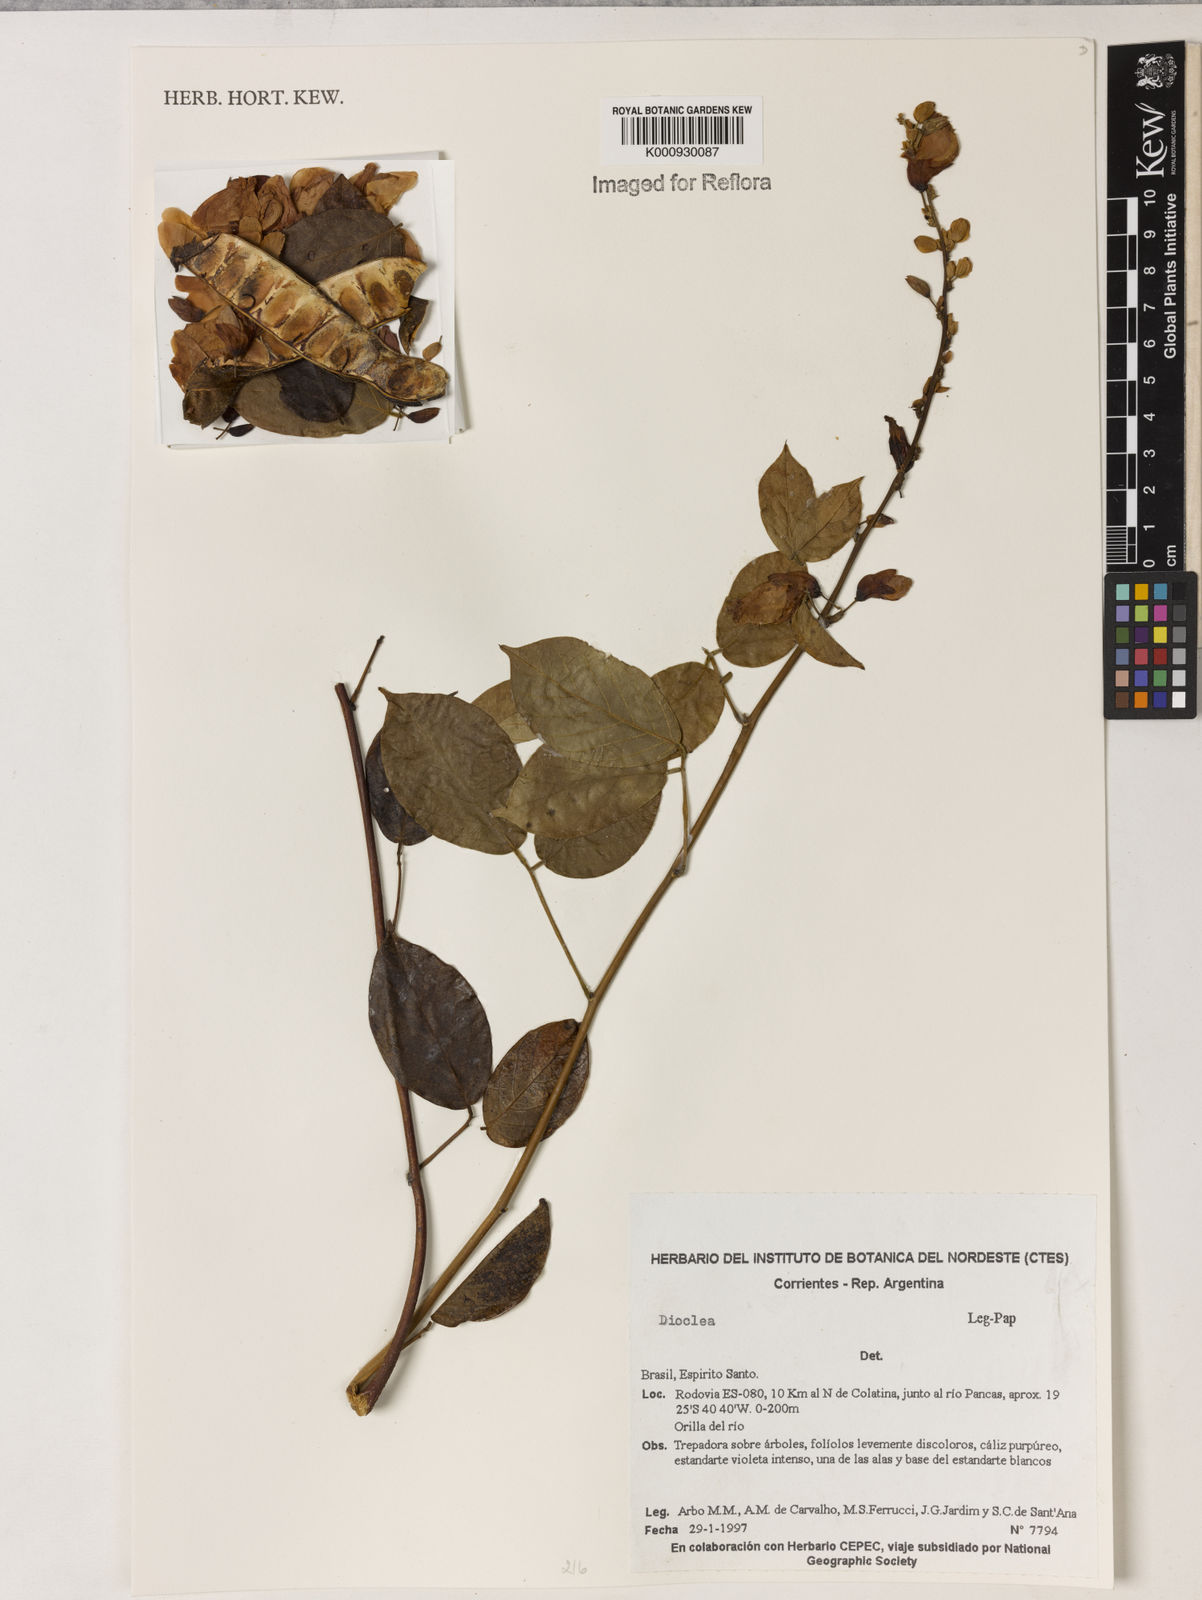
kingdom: Plantae
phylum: Tracheophyta
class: Magnoliopsida
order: Fabales
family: Fabaceae
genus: Dioclea
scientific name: Dioclea
